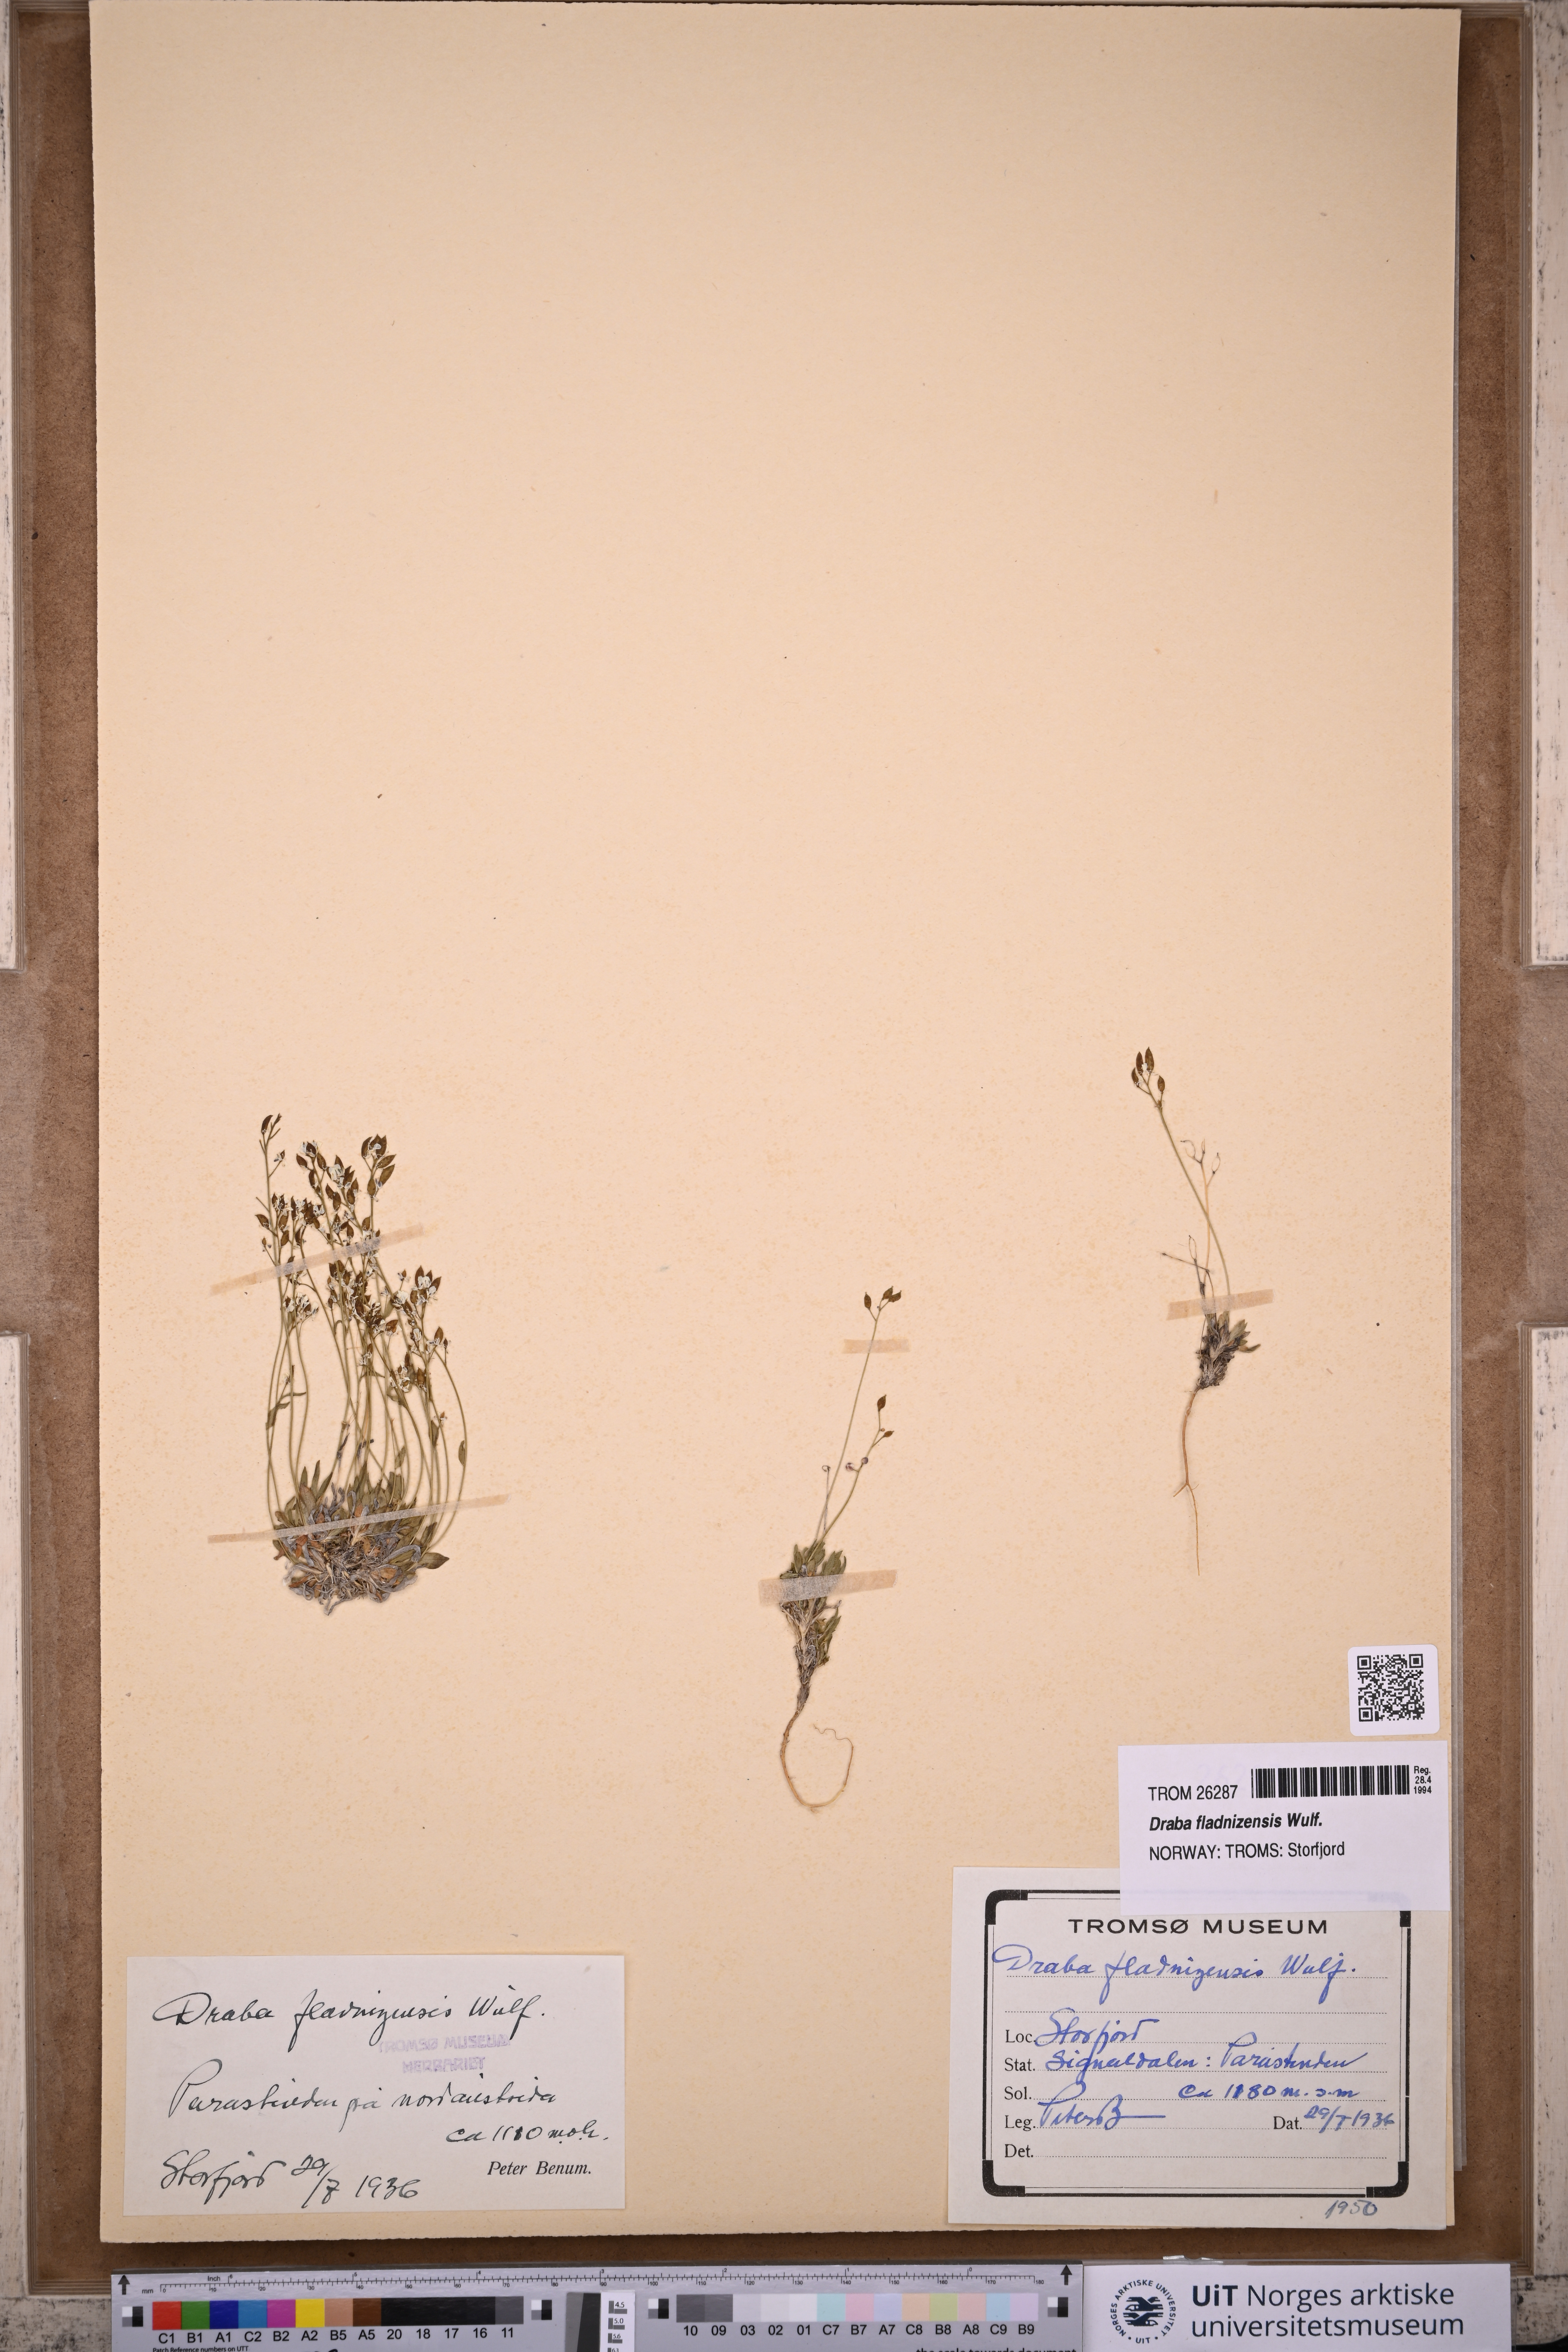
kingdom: Plantae
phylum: Tracheophyta
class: Magnoliopsida
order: Brassicales
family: Brassicaceae
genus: Draba
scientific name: Draba fladnizensis
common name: Austrian draba
